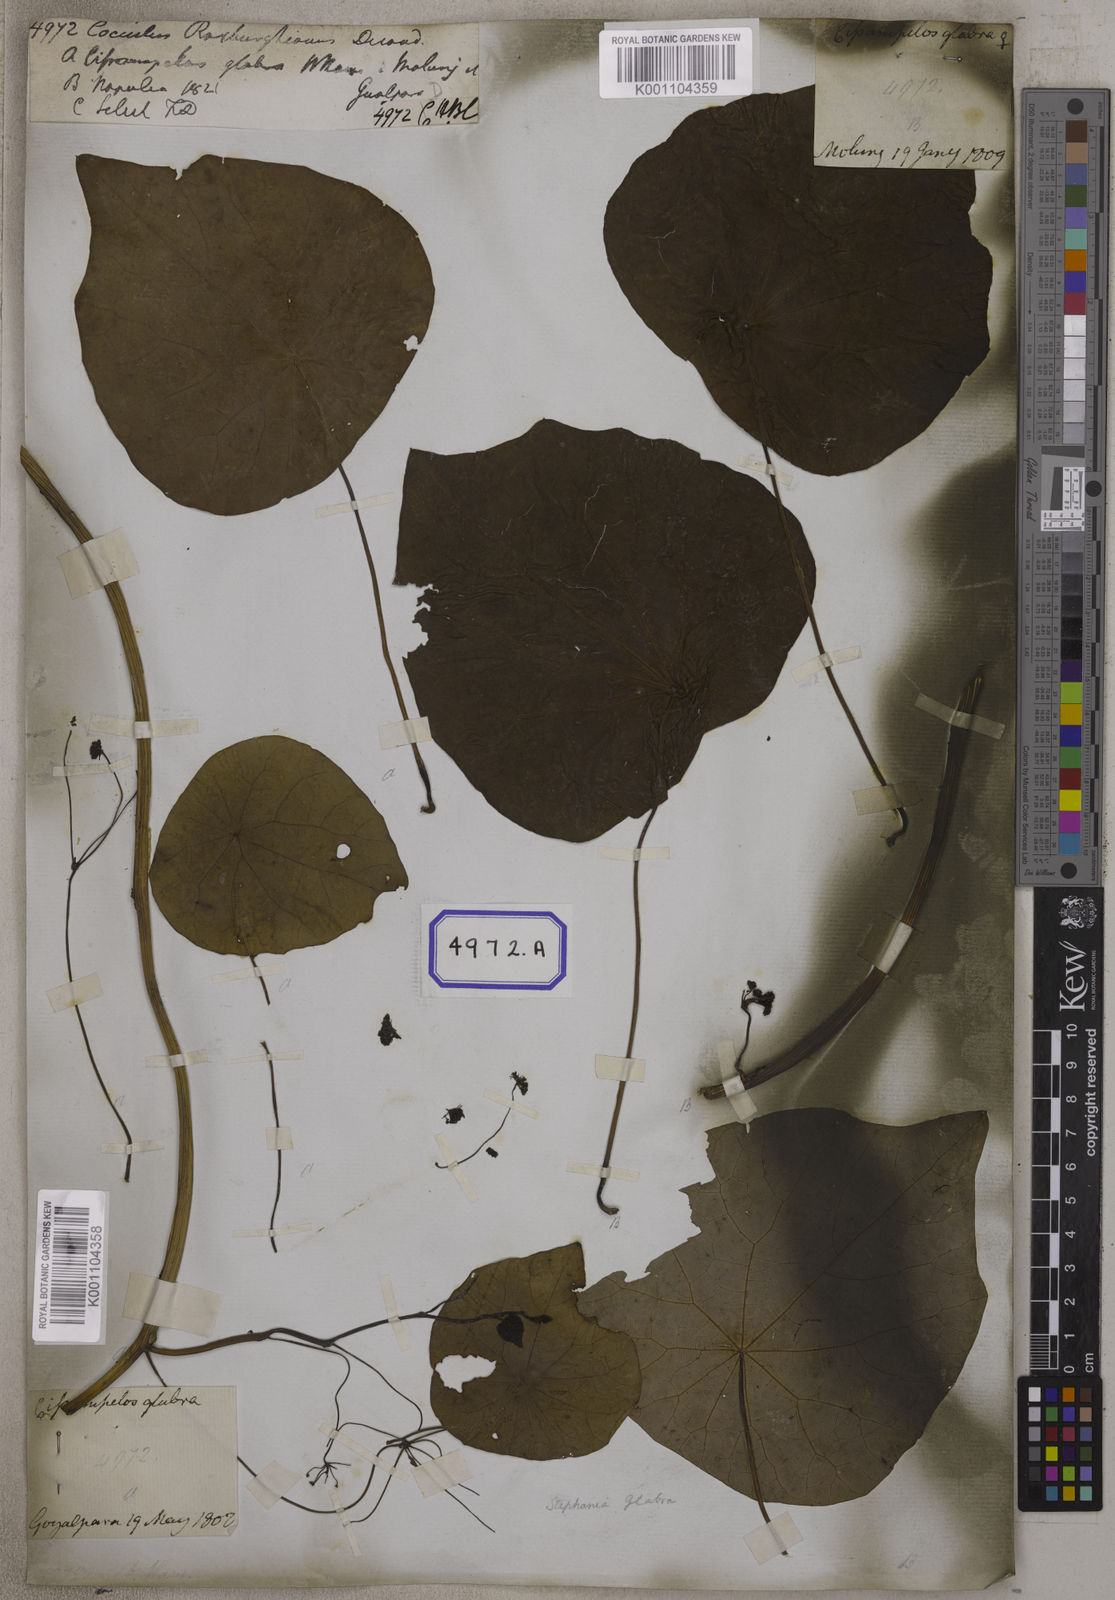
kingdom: Plantae
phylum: Tracheophyta
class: Magnoliopsida
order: Ranunculales
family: Menispermaceae
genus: Stephania
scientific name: Stephania japonica
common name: Snake vine
